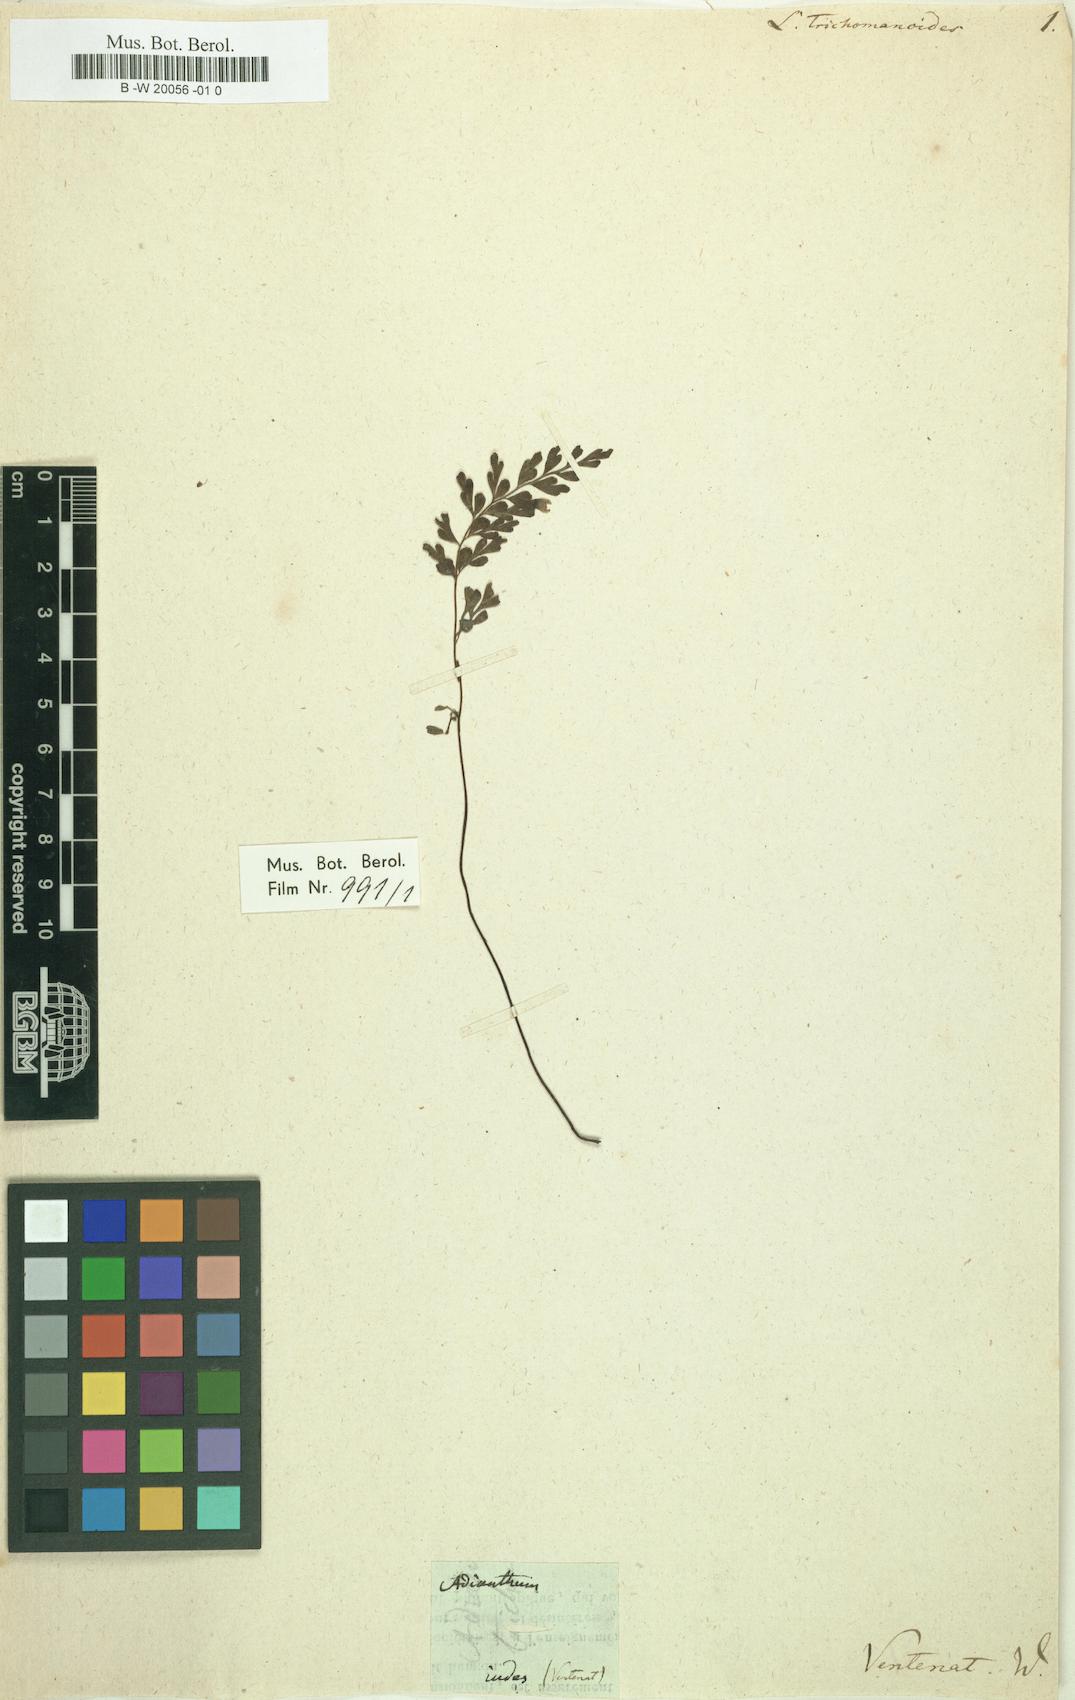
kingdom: Plantae
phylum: Tracheophyta
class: Polypodiopsida
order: Polypodiales
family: Lindsaeaceae
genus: Lindsaea
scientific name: Lindsaea trichomanoides
